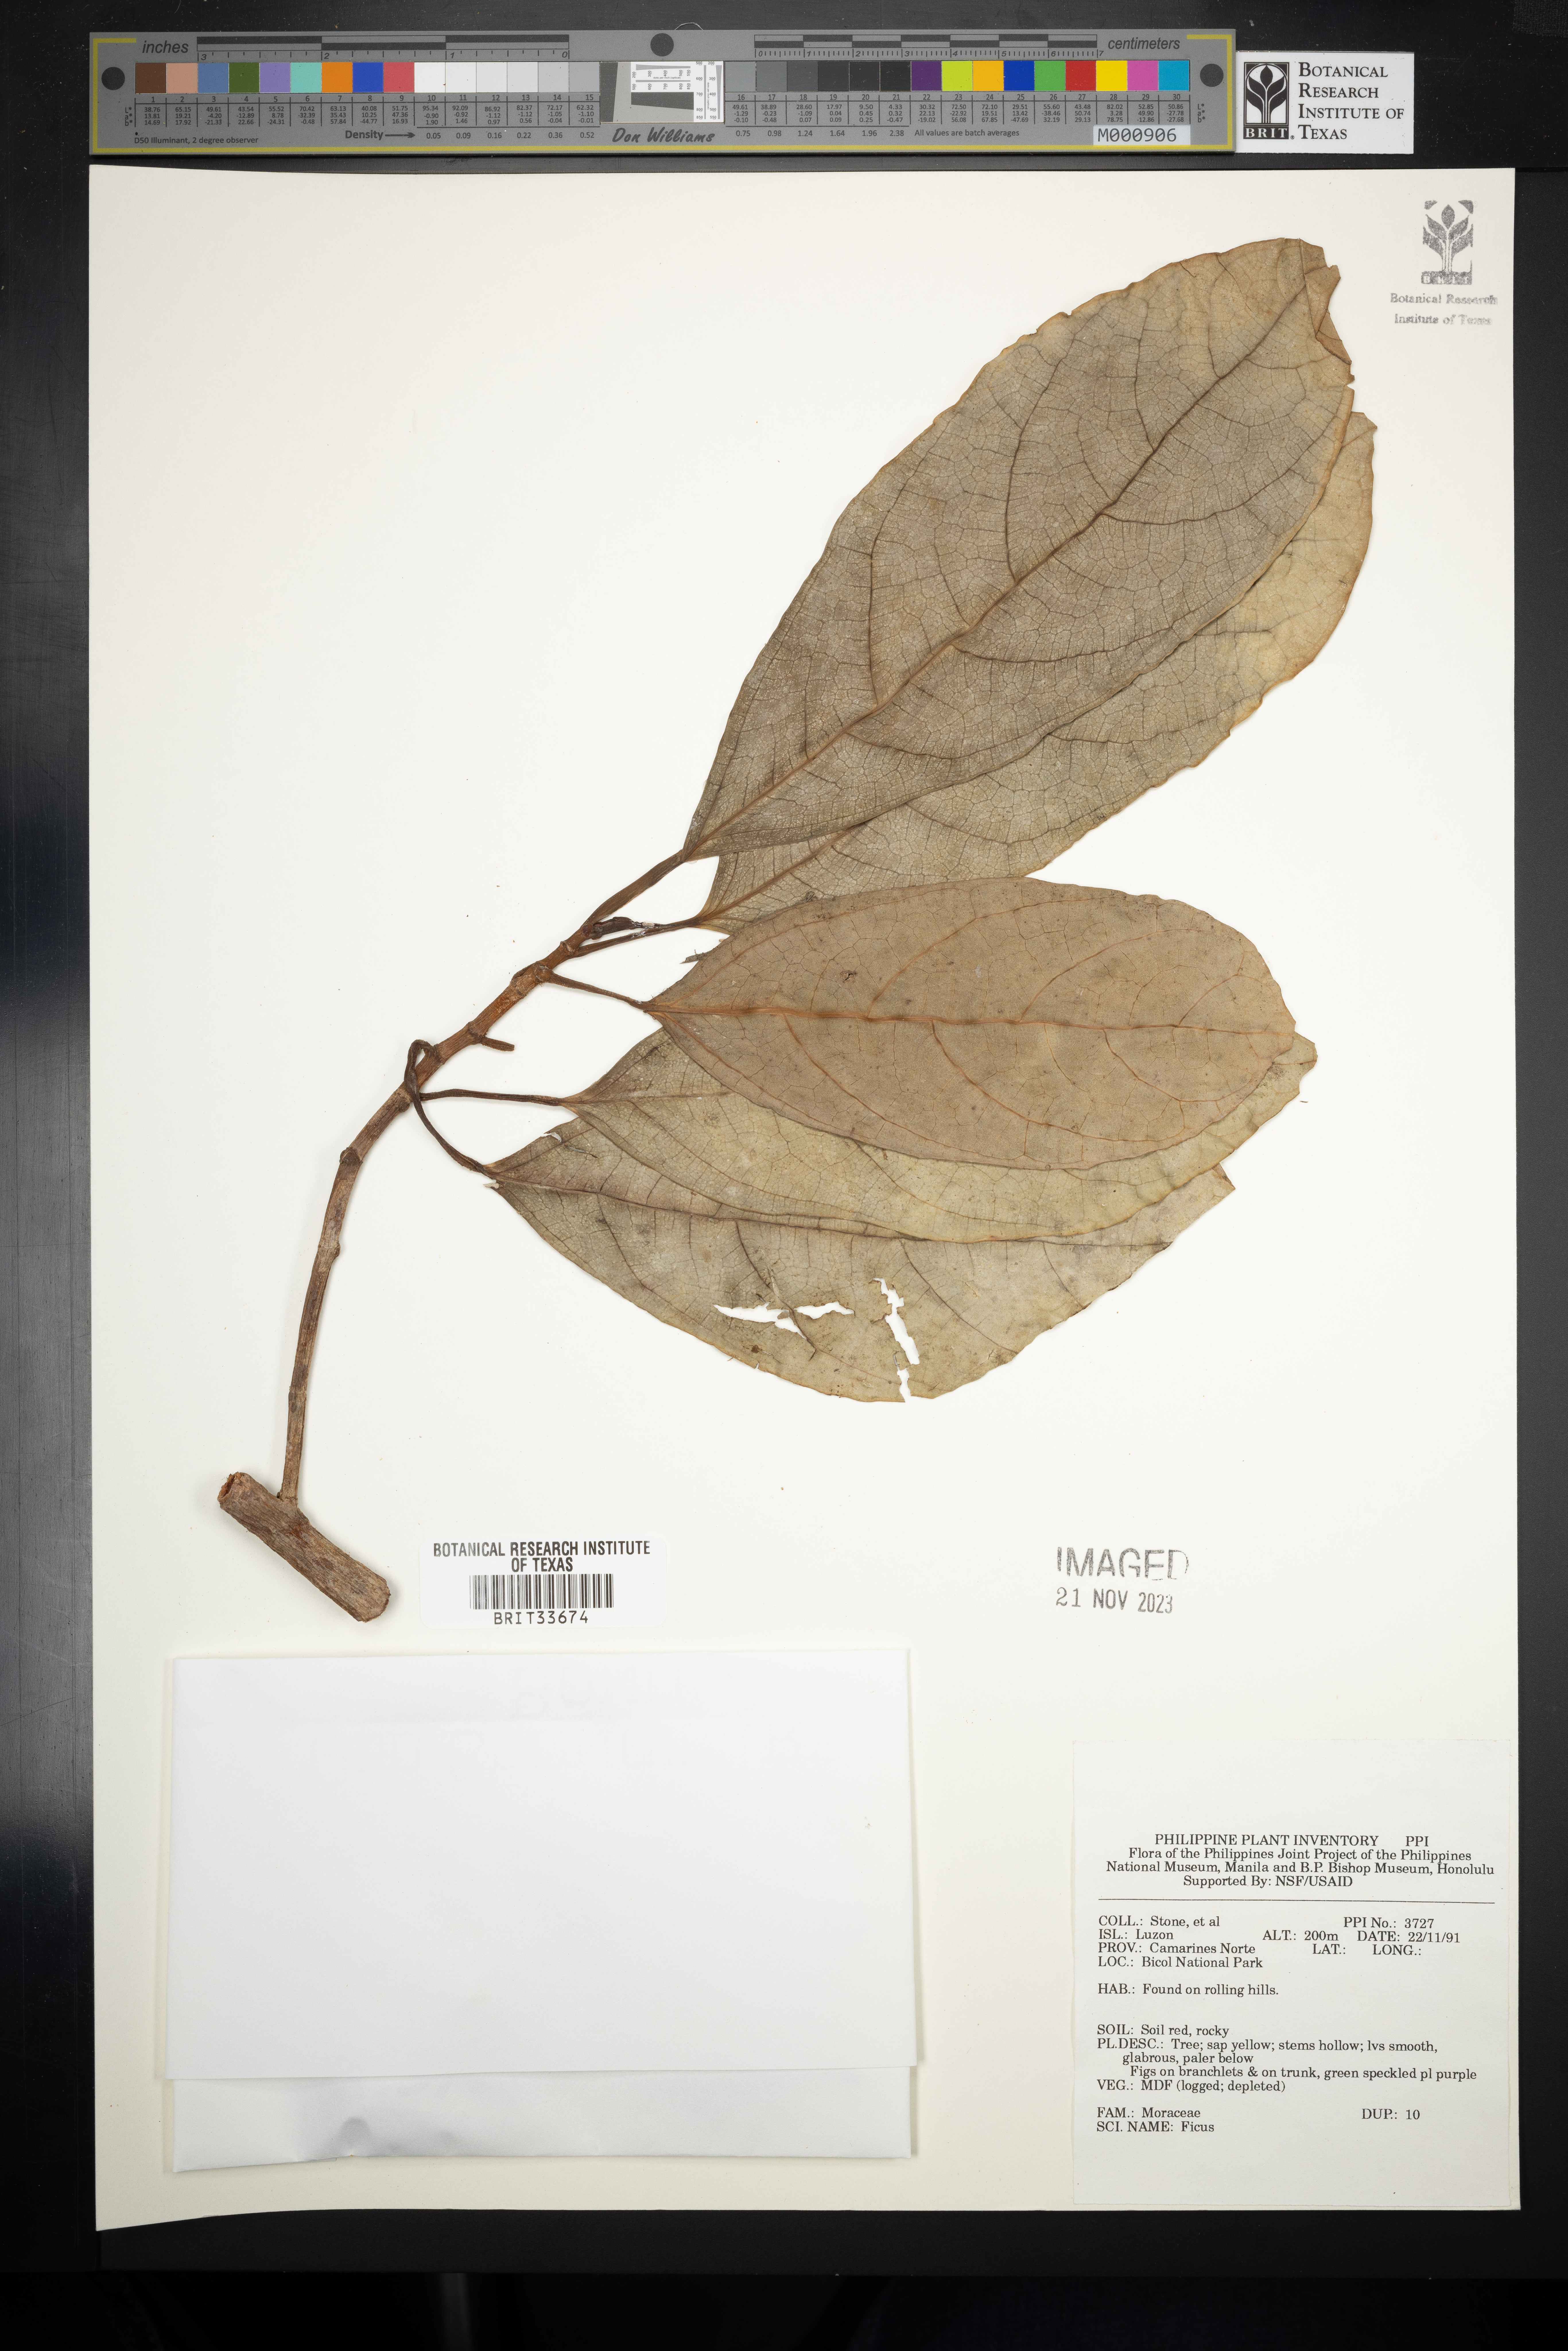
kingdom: Plantae
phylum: Tracheophyta
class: Magnoliopsida
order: Rosales
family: Moraceae
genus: Ficus
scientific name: Ficus
